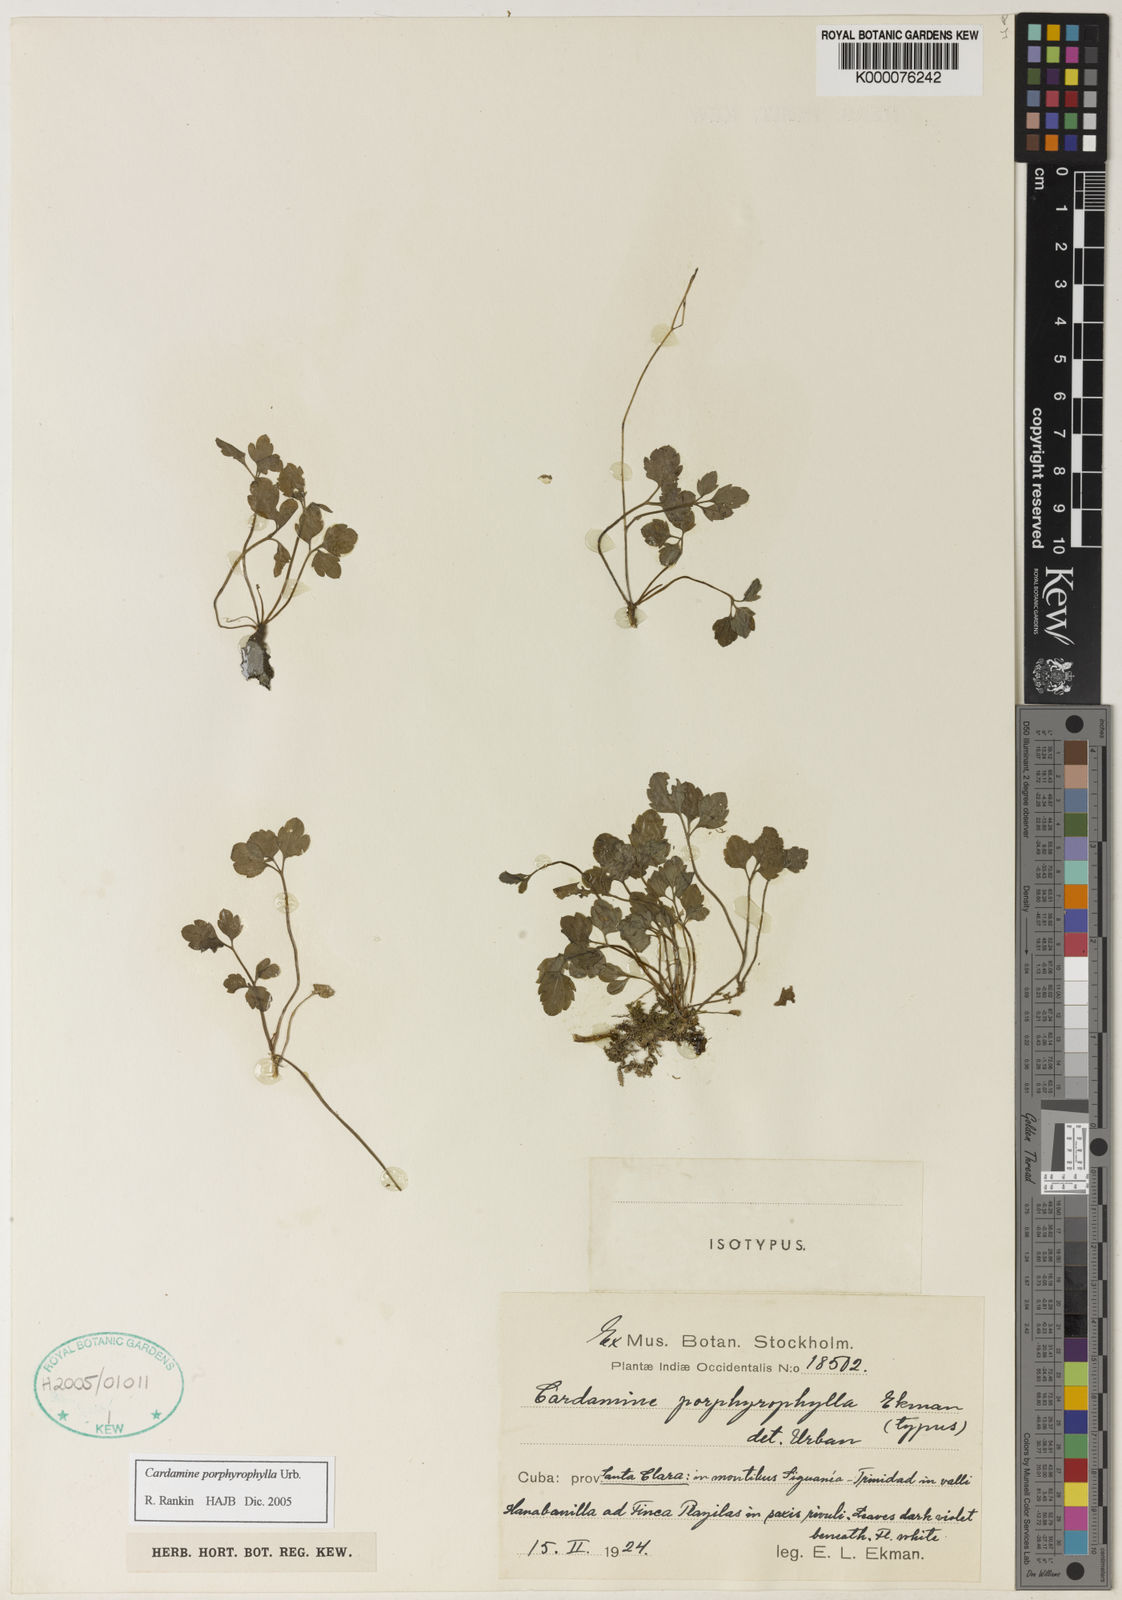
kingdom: Plantae
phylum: Tracheophyta
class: Magnoliopsida
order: Brassicales
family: Brassicaceae
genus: Cardamine
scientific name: Cardamine africana
